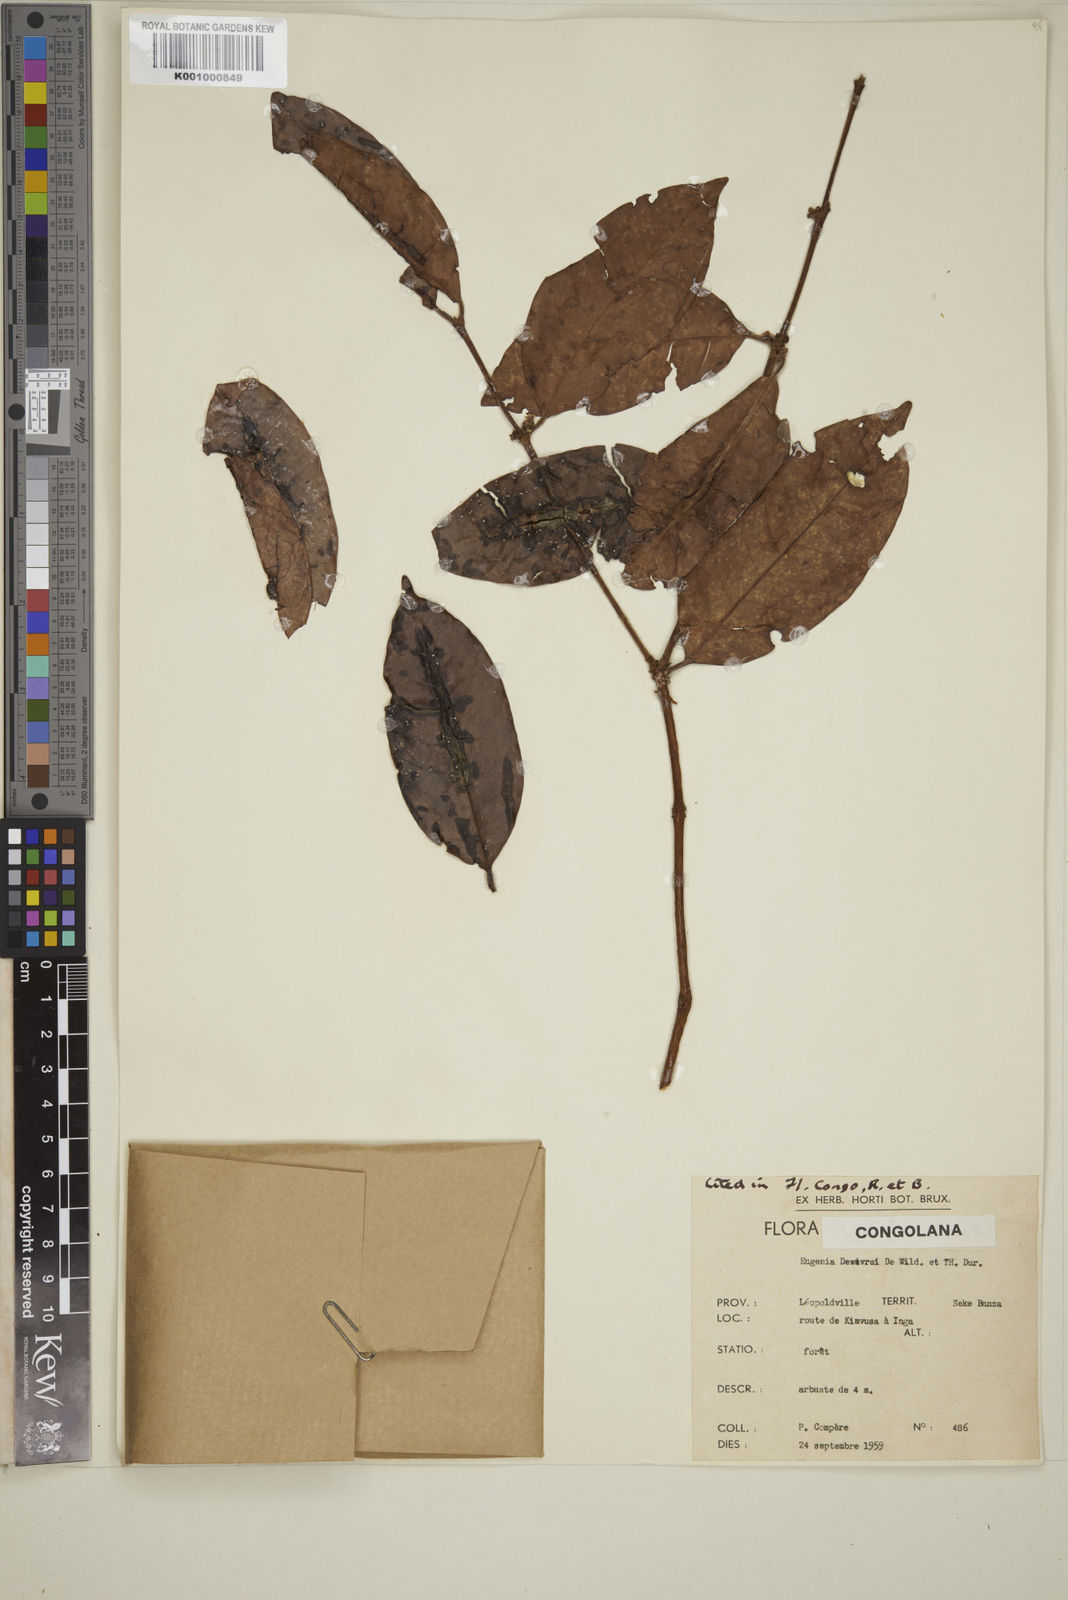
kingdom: Plantae
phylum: Tracheophyta
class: Magnoliopsida
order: Myrtales
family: Myrtaceae
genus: Eugenia
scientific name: Eugenia
